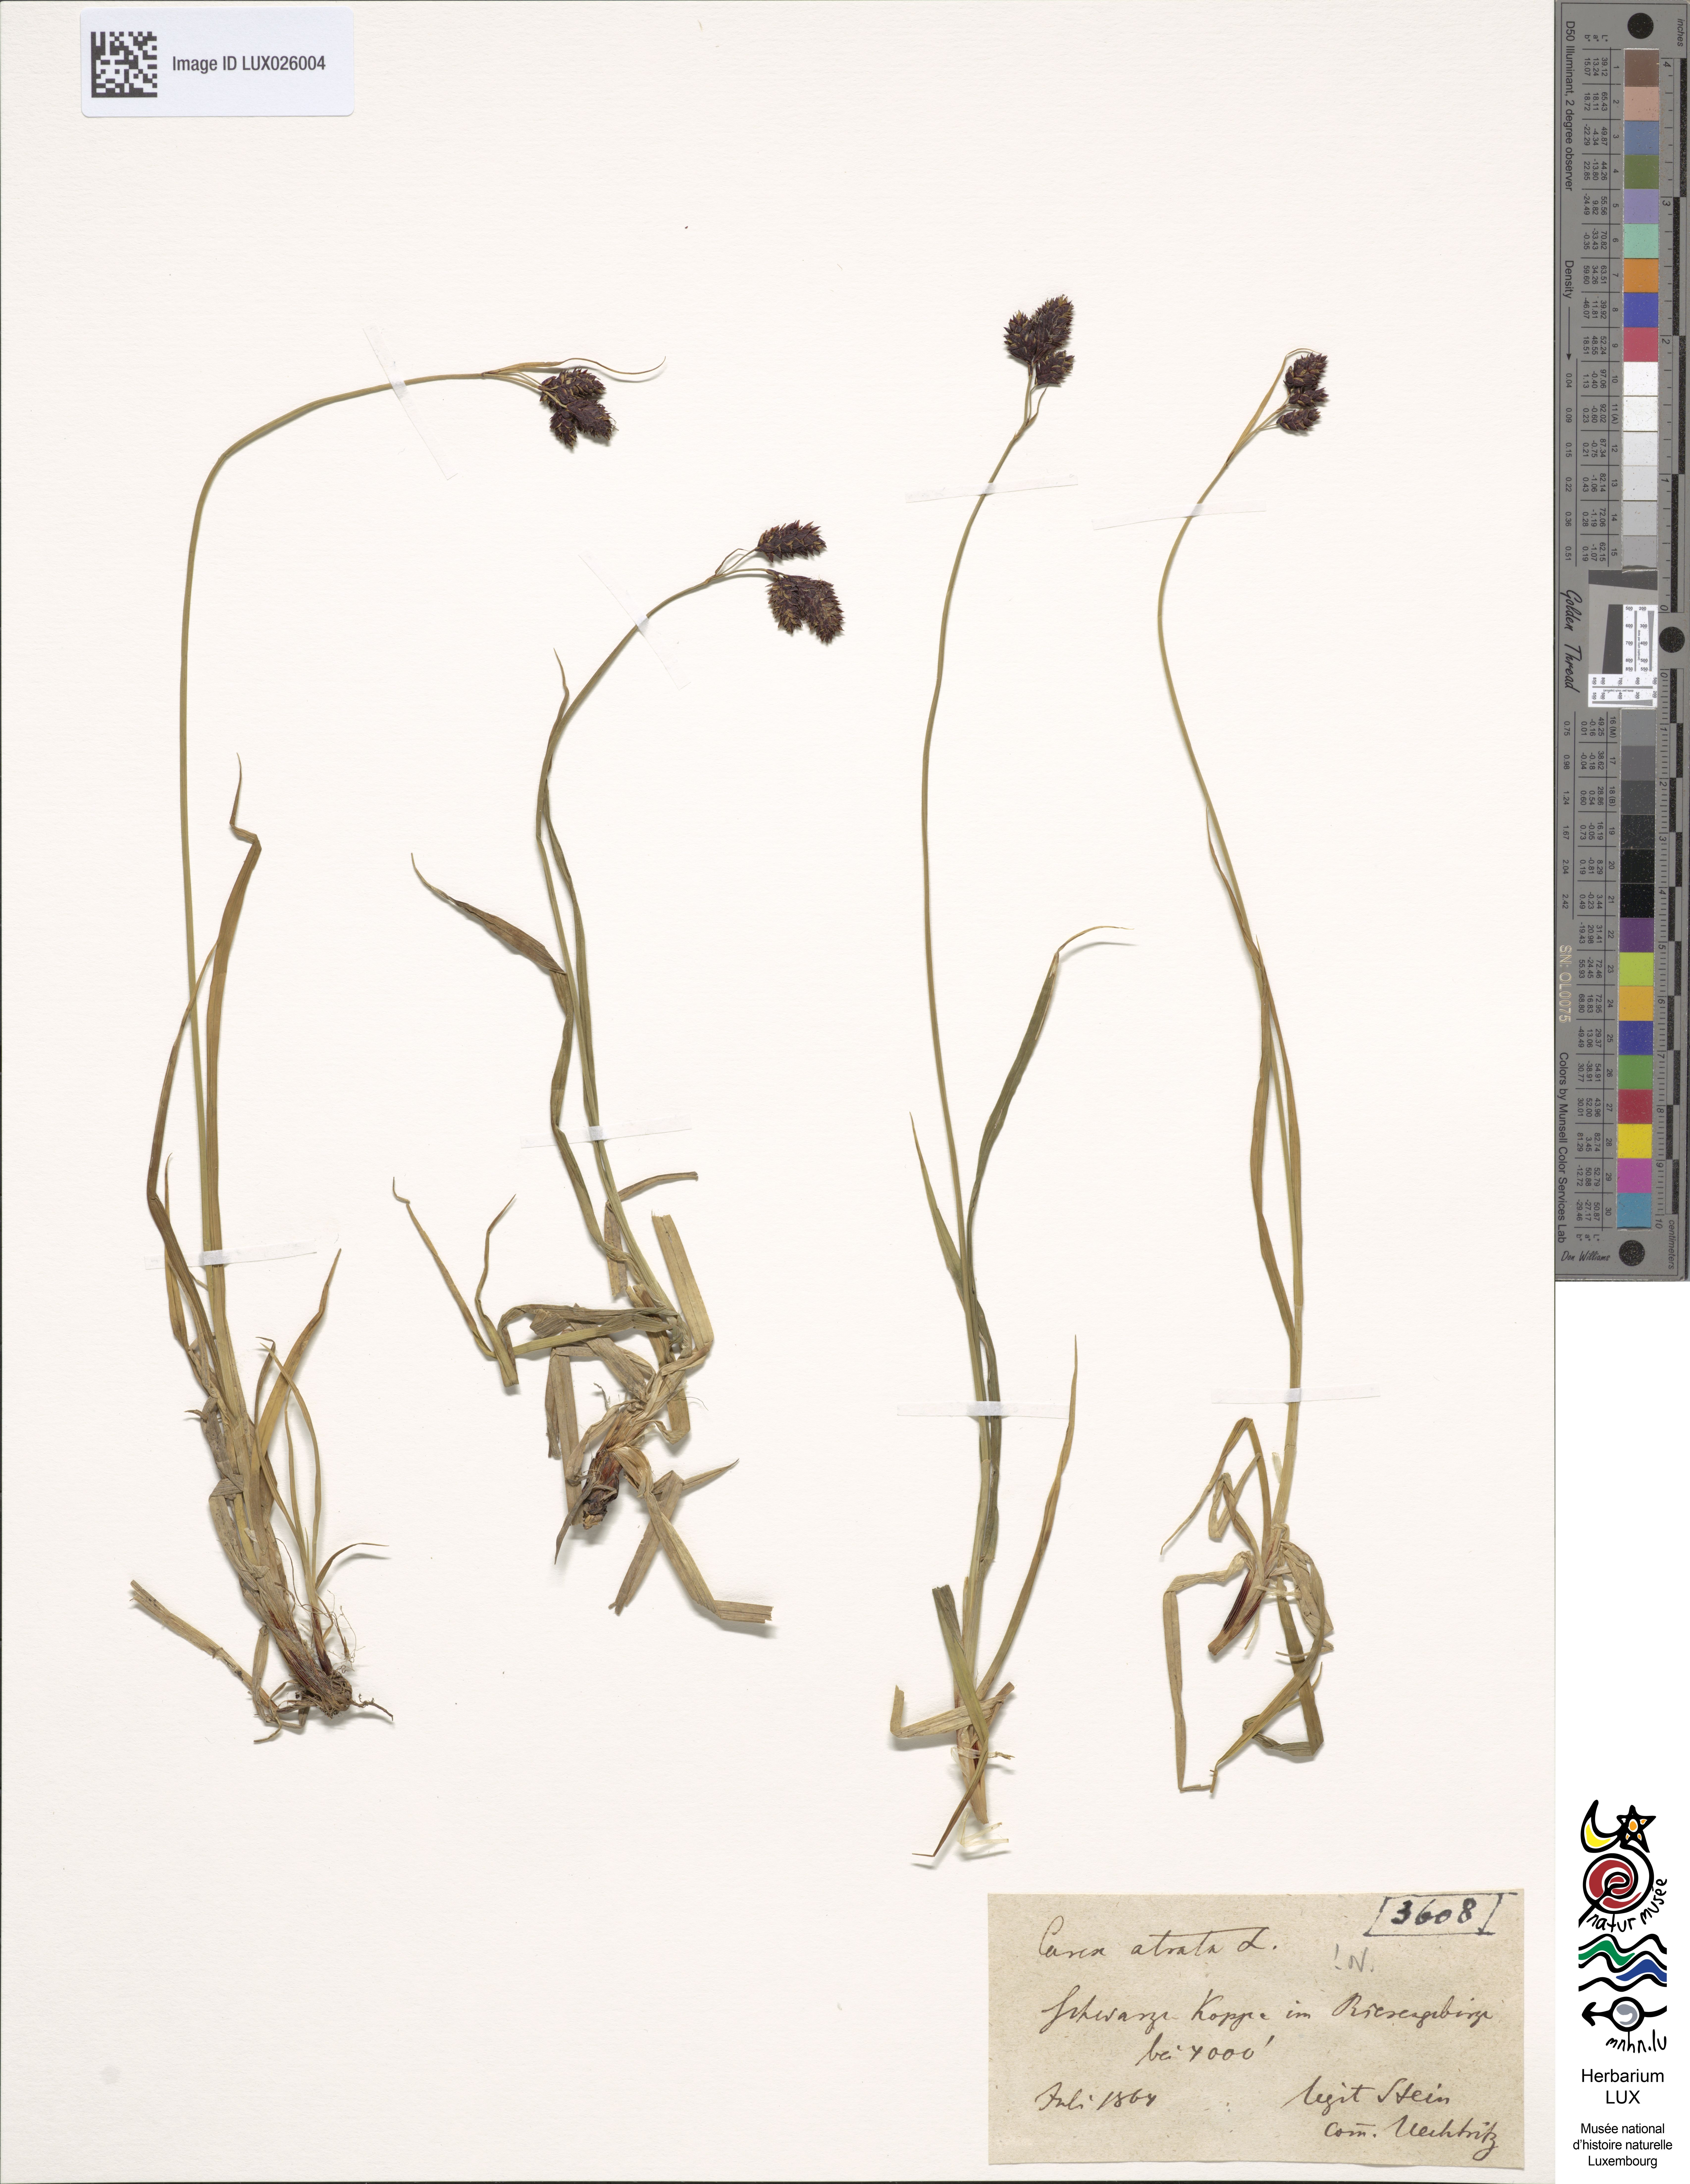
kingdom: Plantae
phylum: Tracheophyta
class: Liliopsida
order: Poales
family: Cyperaceae
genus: Carex
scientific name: Carex atrata
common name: Black alpine sedge
